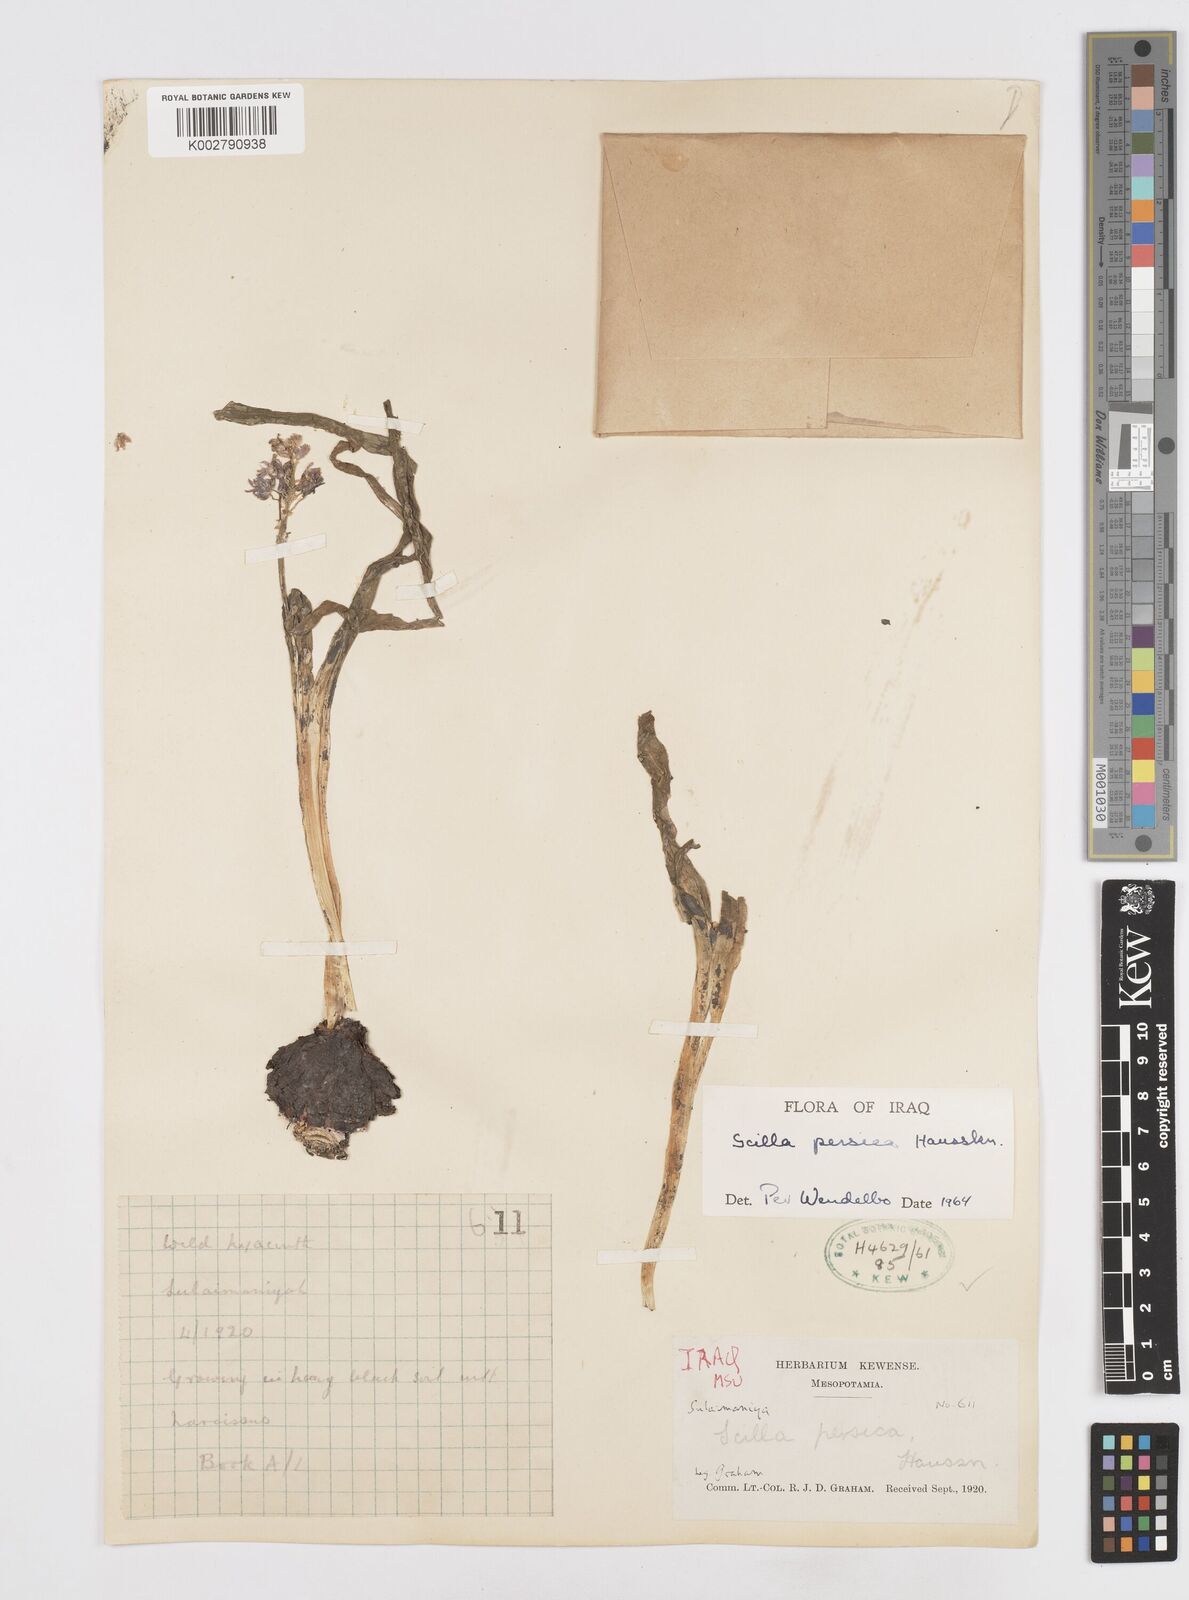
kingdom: Plantae
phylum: Tracheophyta
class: Liliopsida
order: Asparagales
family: Asparagaceae
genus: Zagrosia
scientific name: Zagrosia persica
